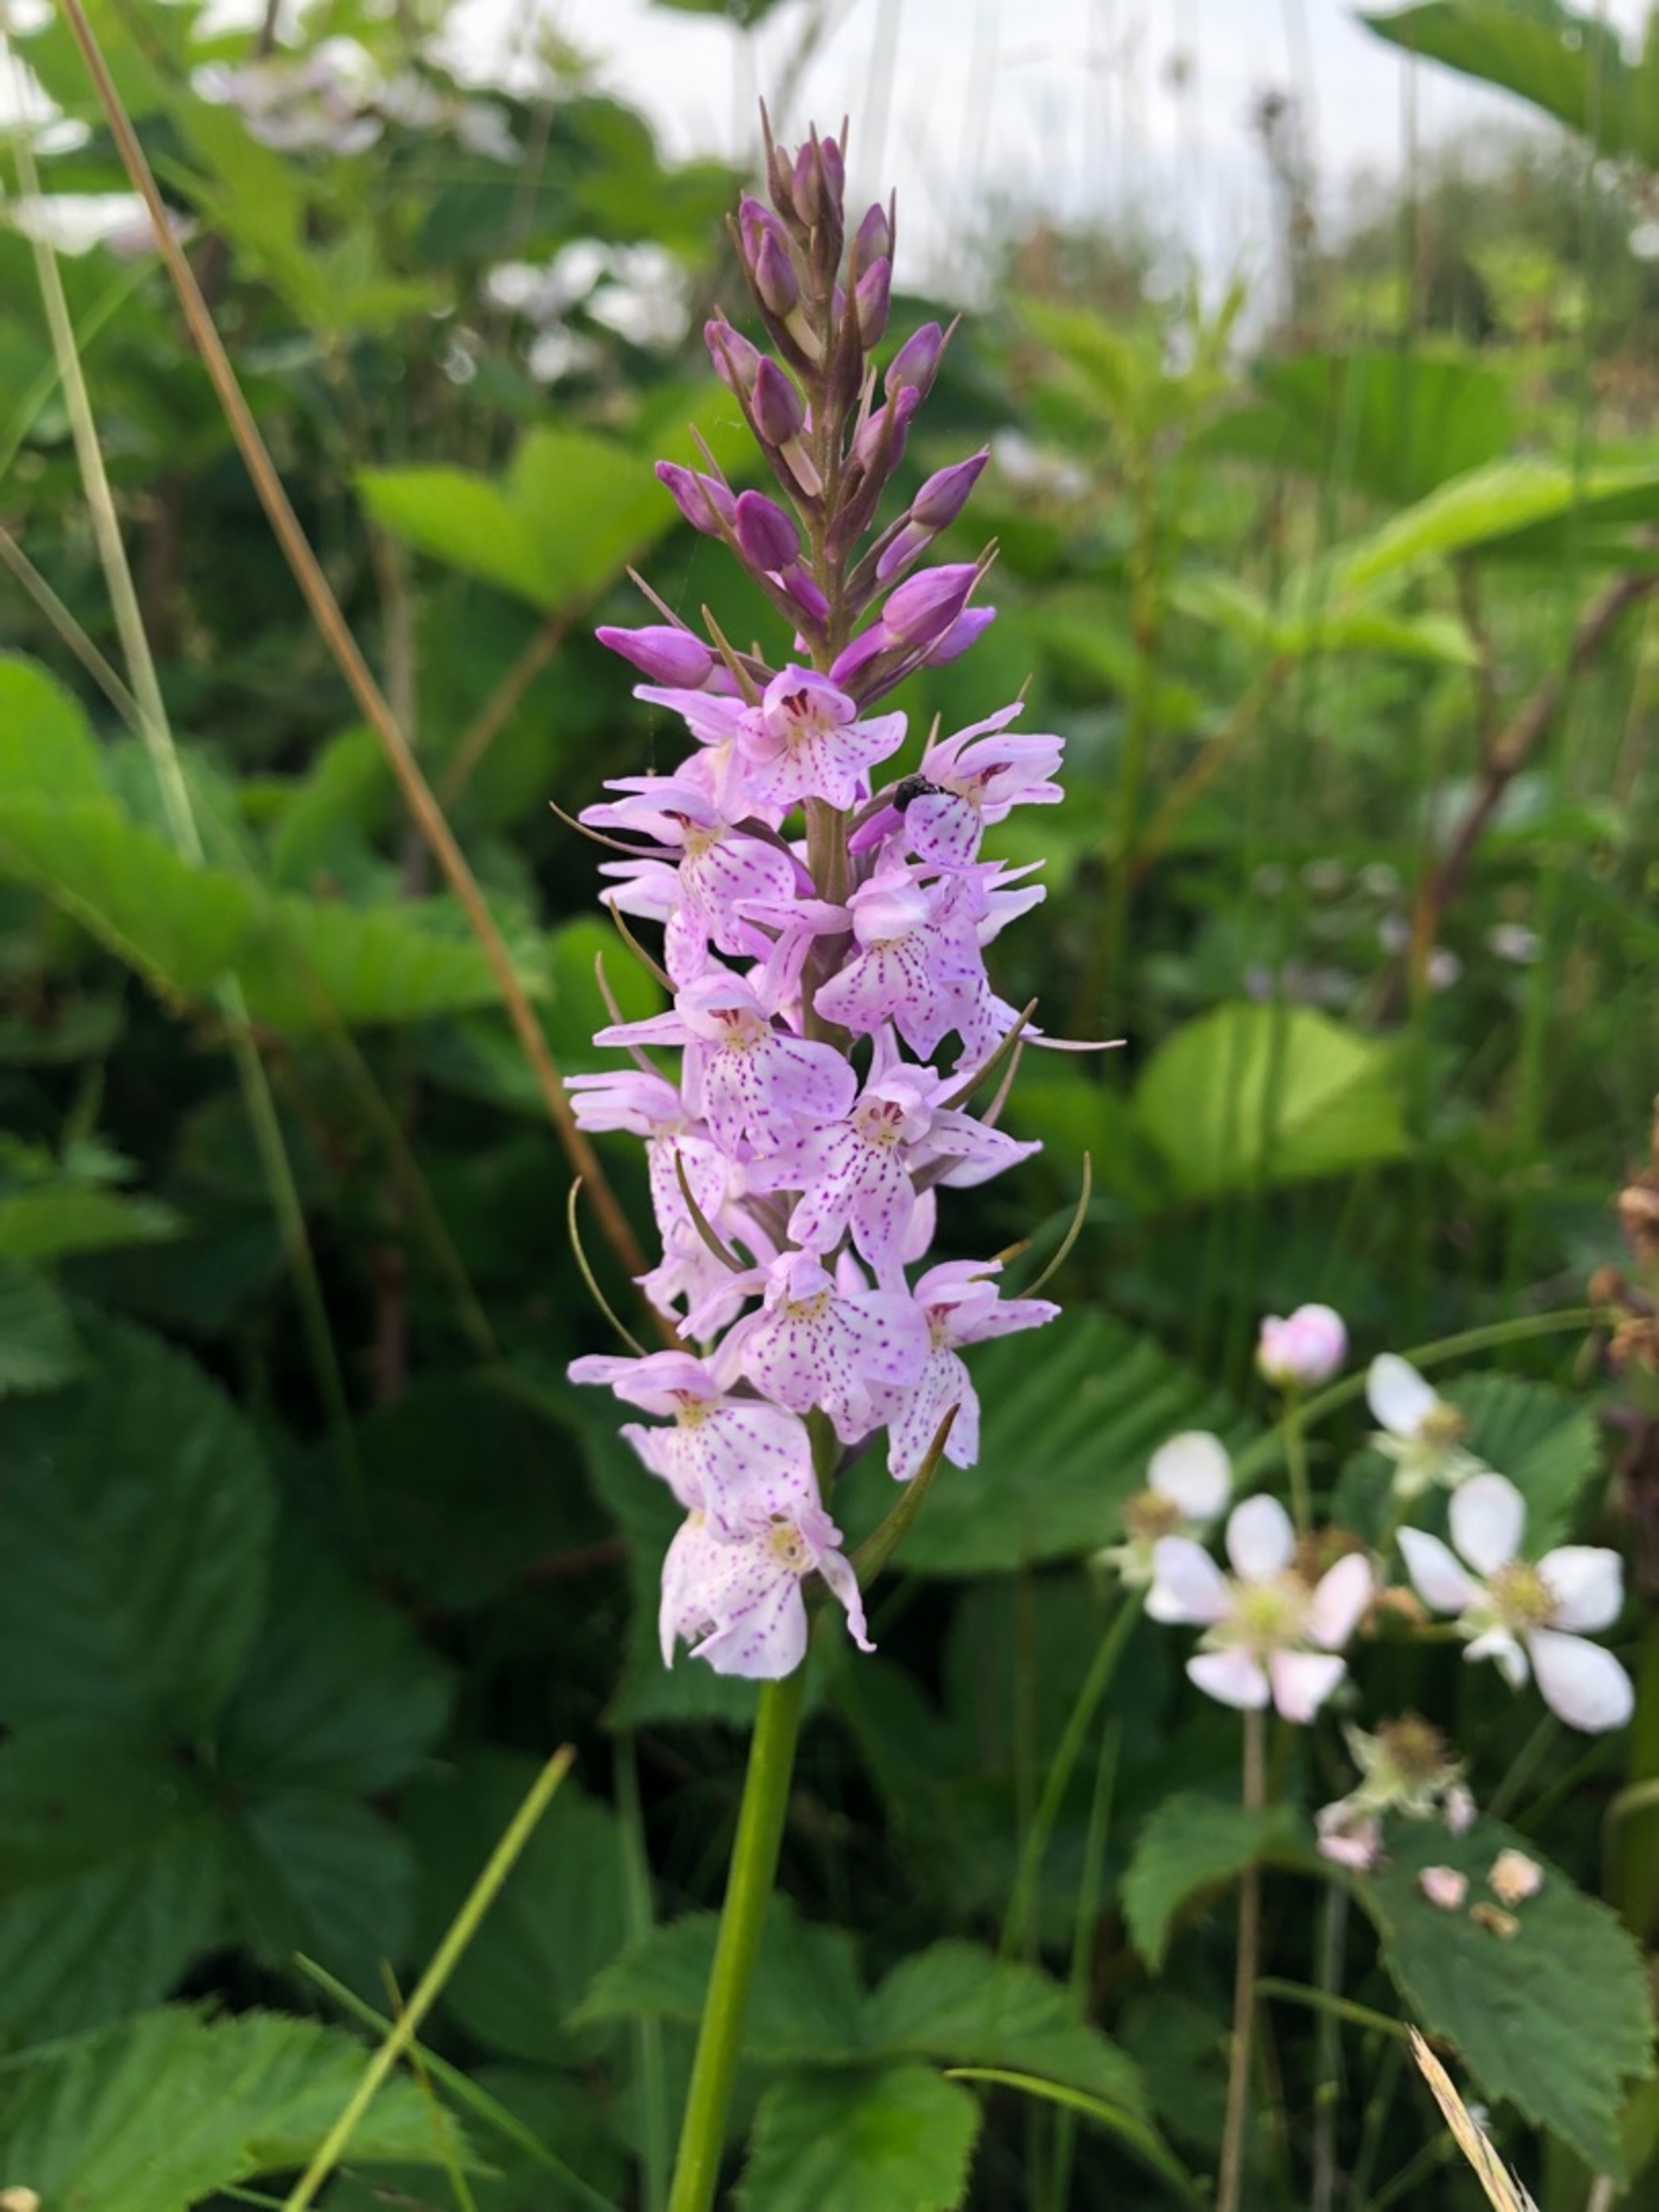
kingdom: Plantae
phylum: Tracheophyta
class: Liliopsida
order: Asparagales
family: Orchidaceae
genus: Dactylorhiza
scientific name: Dactylorhiza maculata
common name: Plettet gøgeurt
